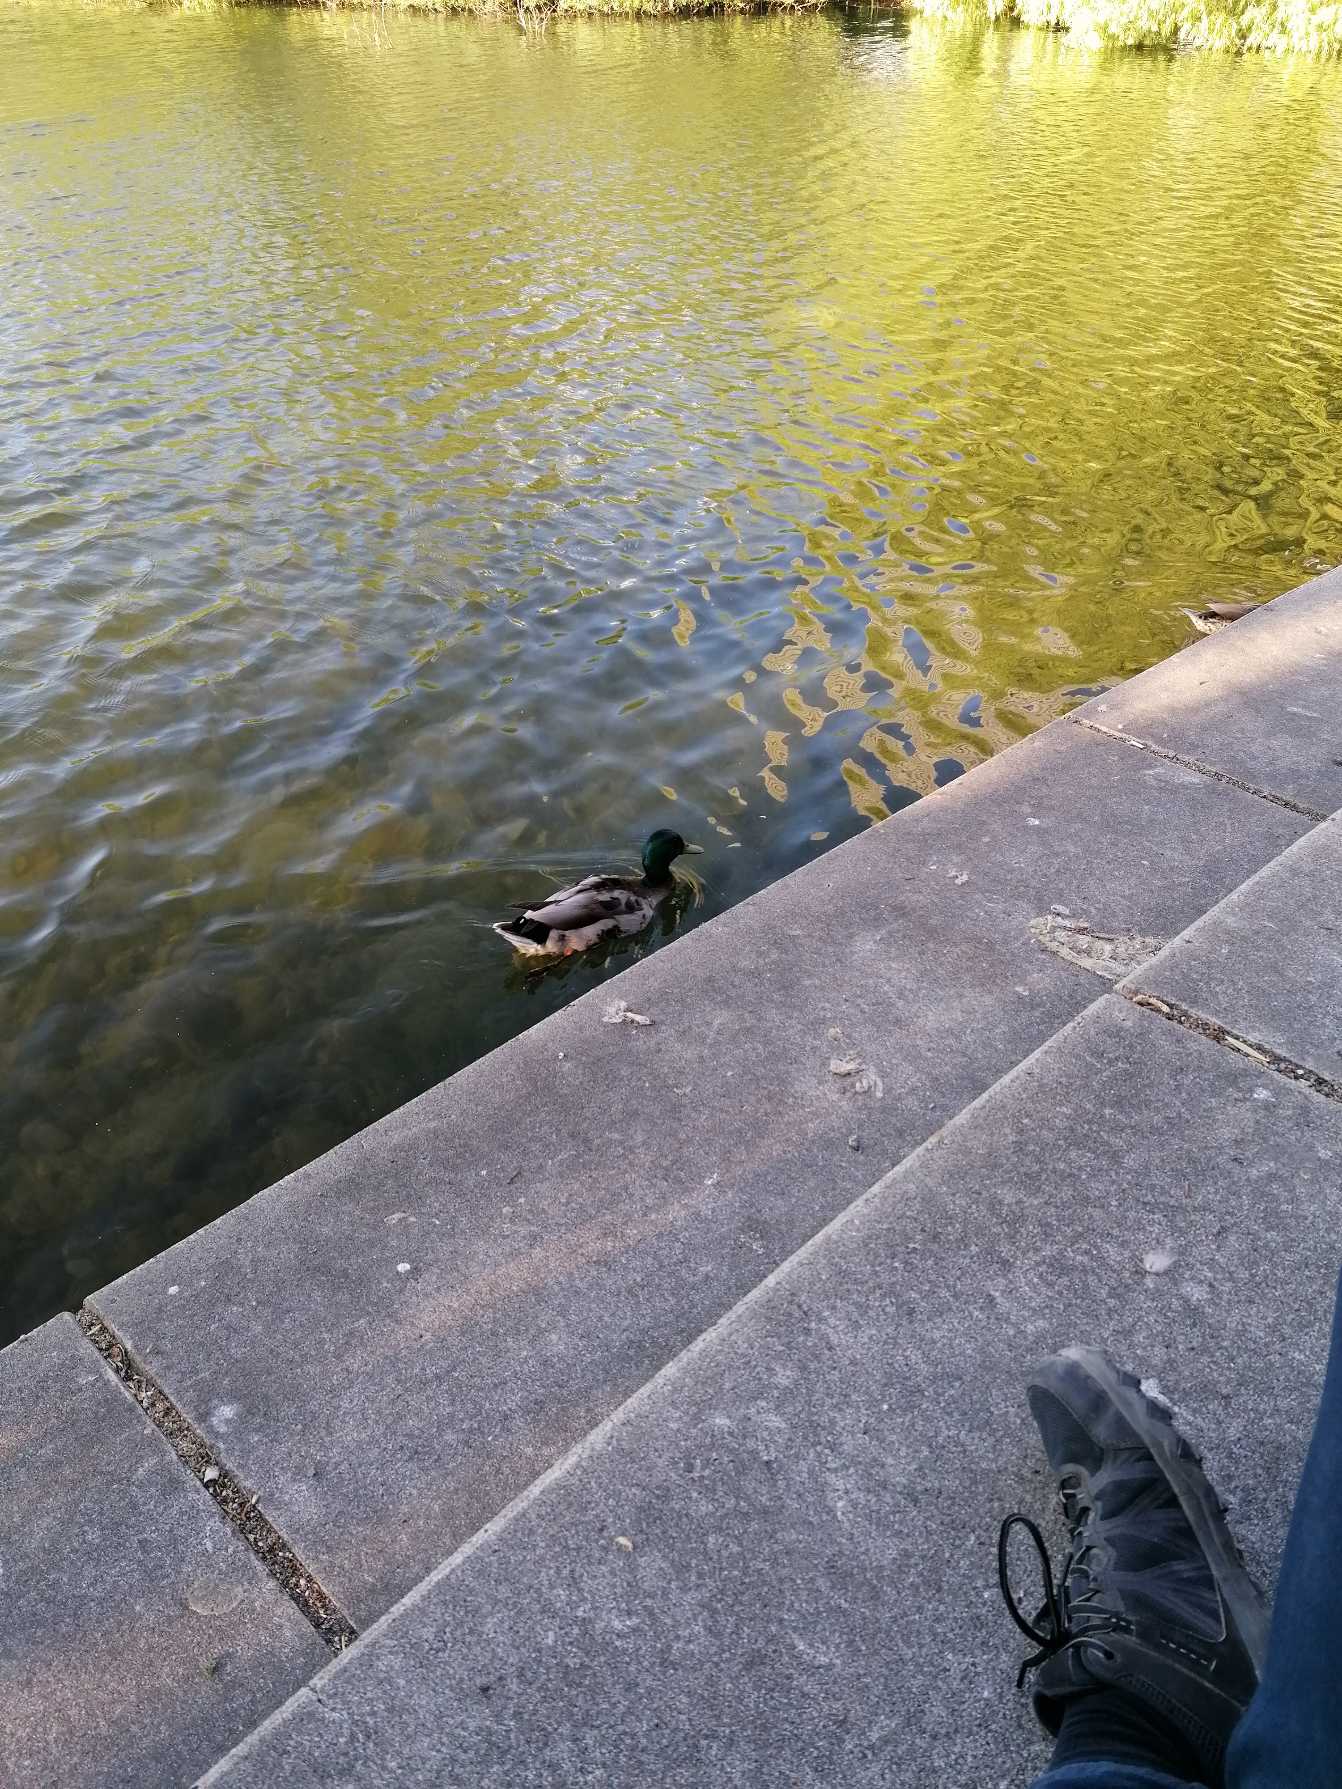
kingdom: Animalia
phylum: Chordata
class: Aves
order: Anseriformes
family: Anatidae
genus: Anas
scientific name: Anas platyrhynchos
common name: Gråand
